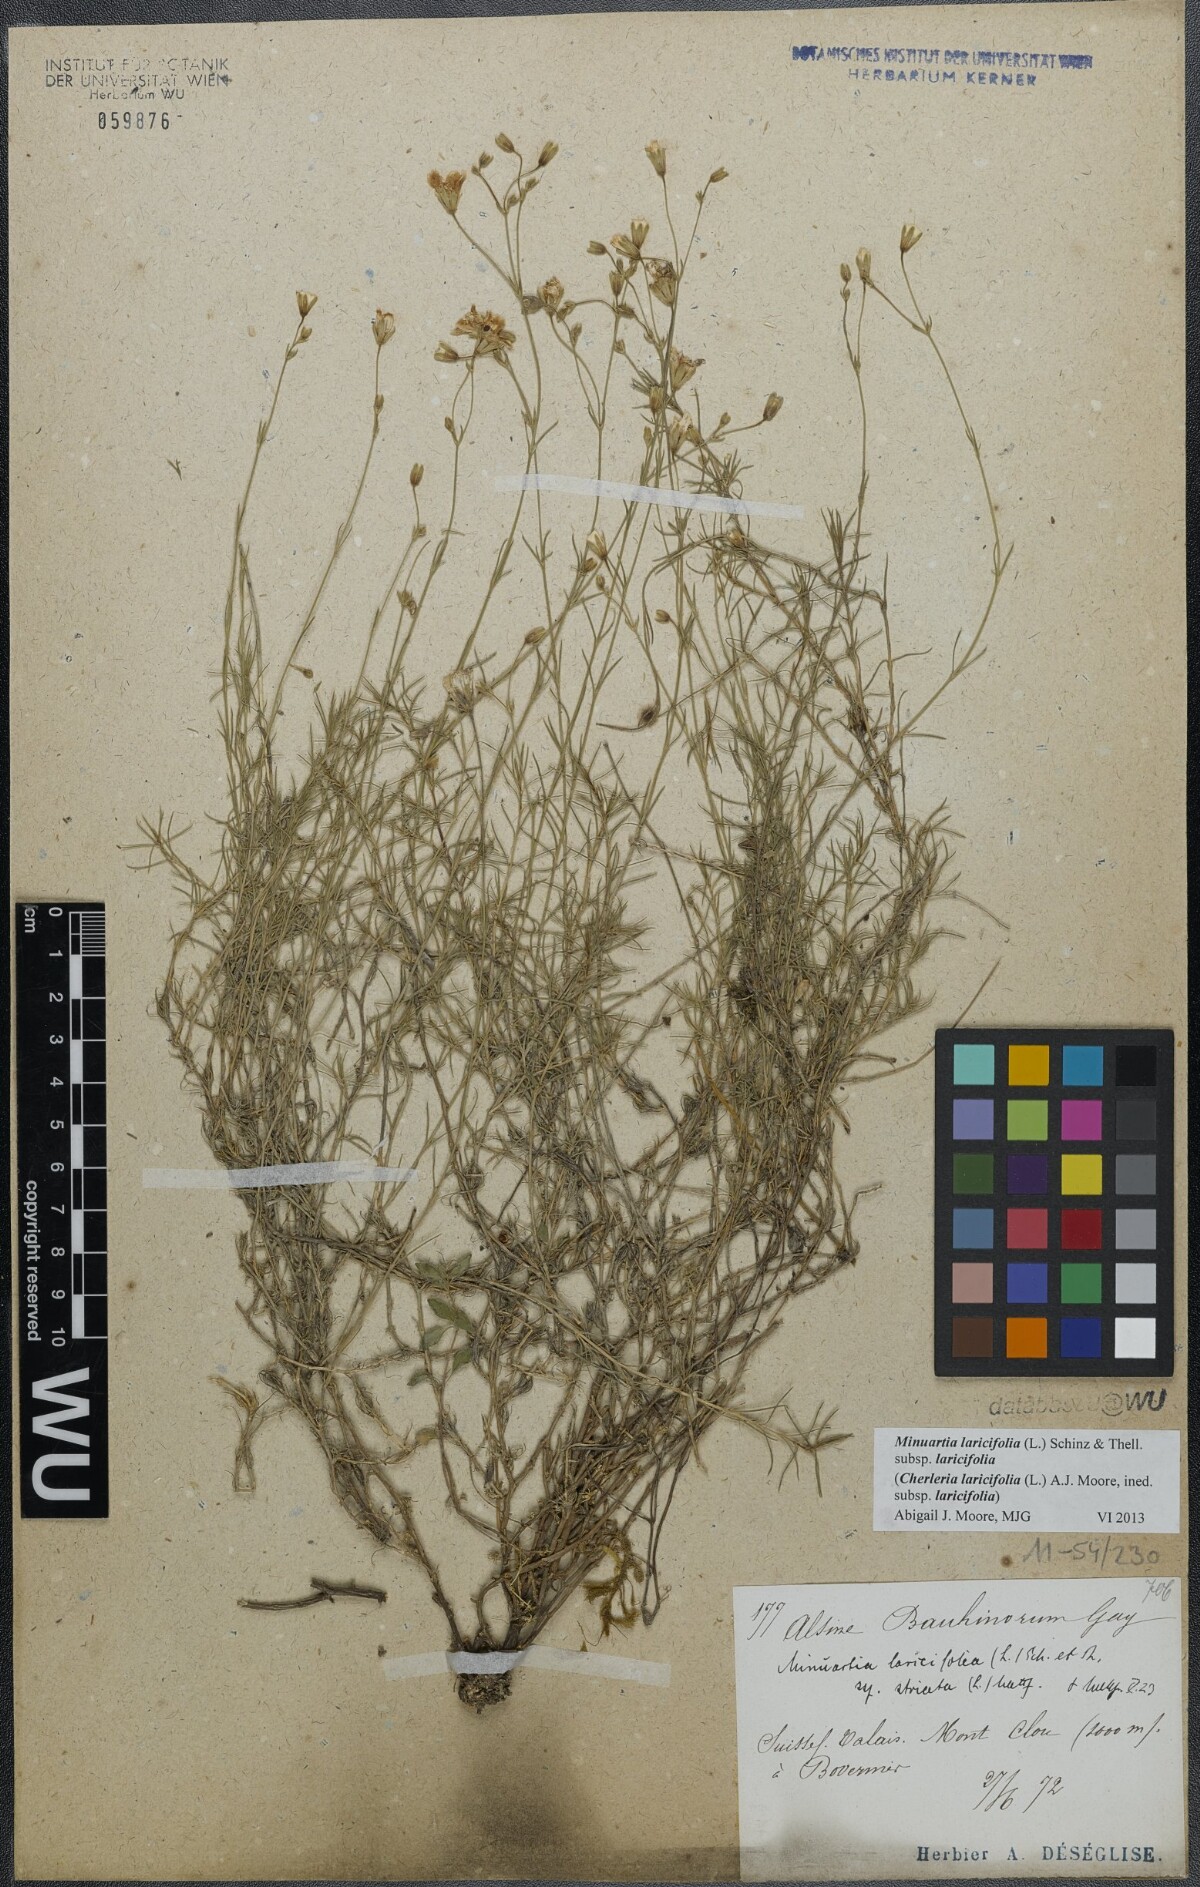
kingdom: Plantae
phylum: Tracheophyta
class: Magnoliopsida
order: Caryophyllales
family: Caryophyllaceae
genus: Cherleria
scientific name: Cherleria laricifolia
